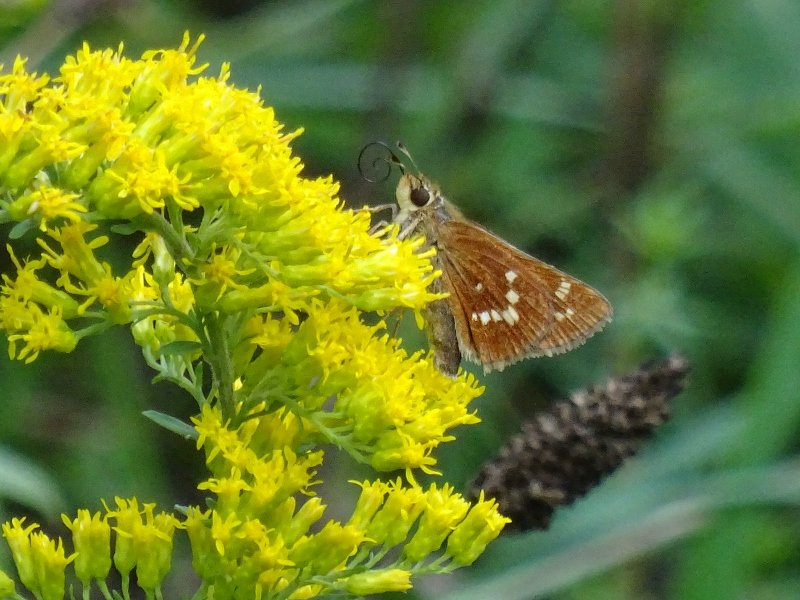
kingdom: Animalia
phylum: Arthropoda
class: Insecta
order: Lepidoptera
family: Hesperiidae
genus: Hesperia
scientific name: Hesperia leonardus
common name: Leonard's Skipper
